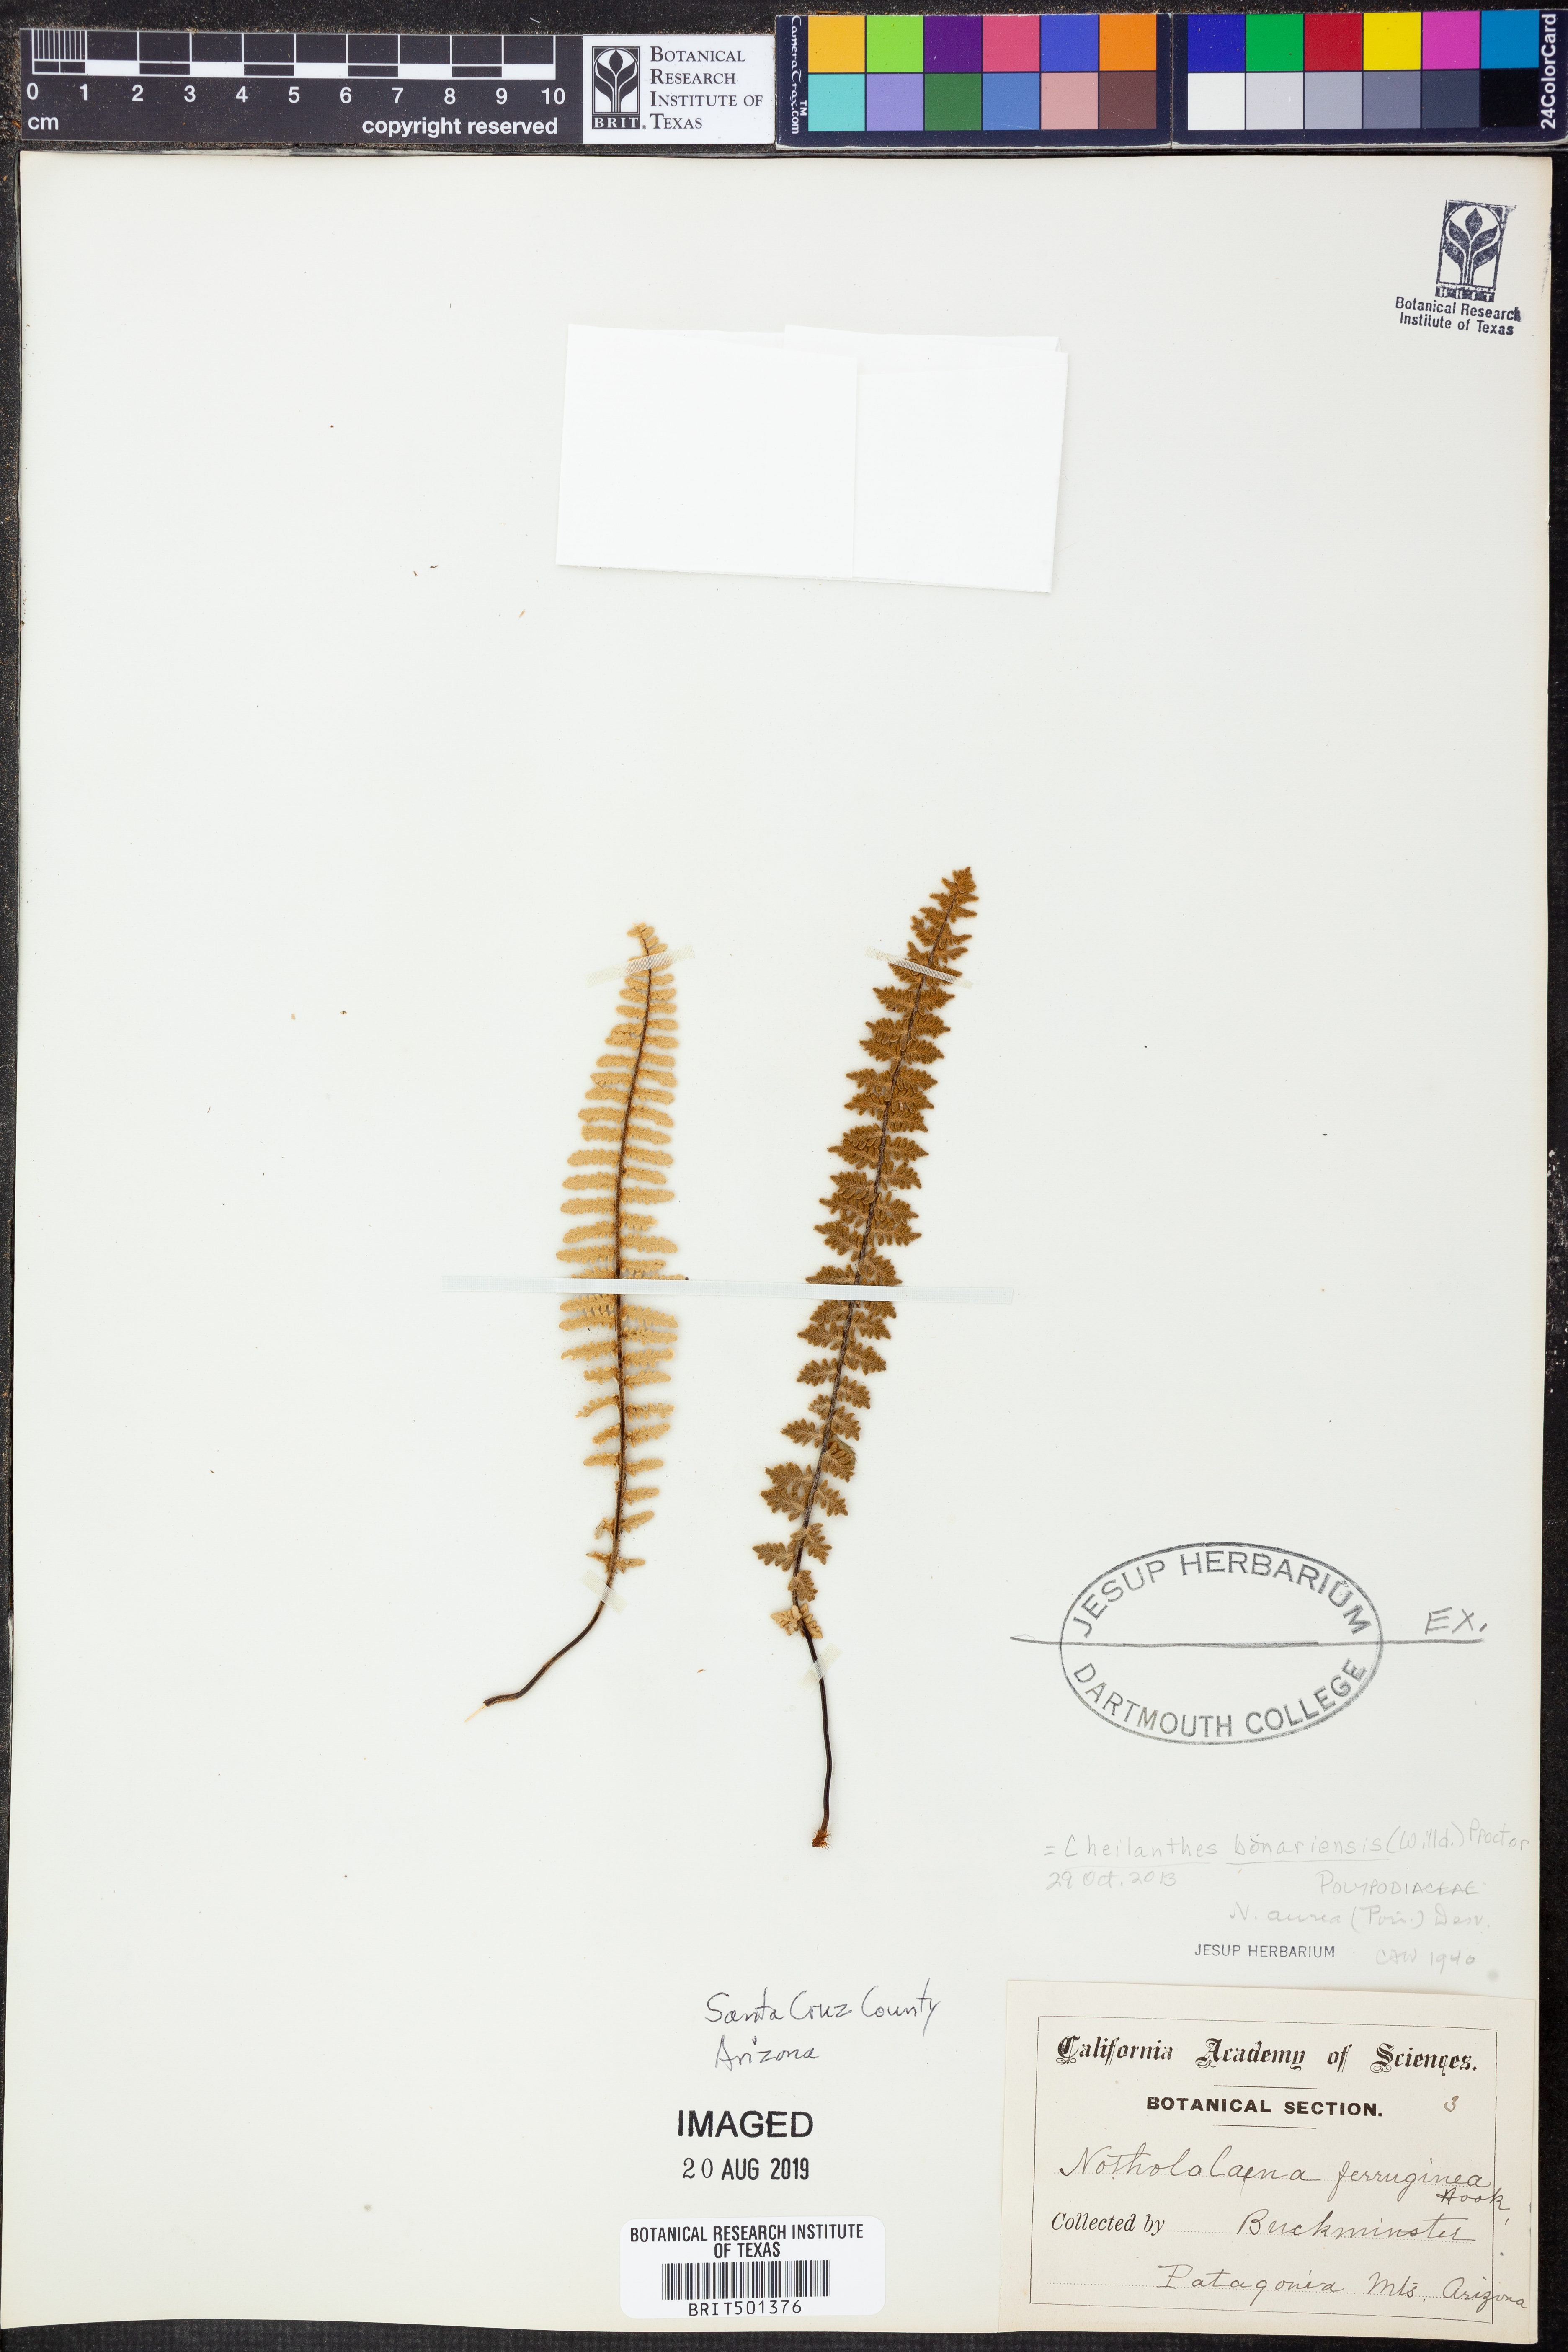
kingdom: Plantae
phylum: Tracheophyta
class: Polypodiopsida
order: Polypodiales
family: Pteridaceae
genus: Myriopteris
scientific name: Myriopteris aurea
